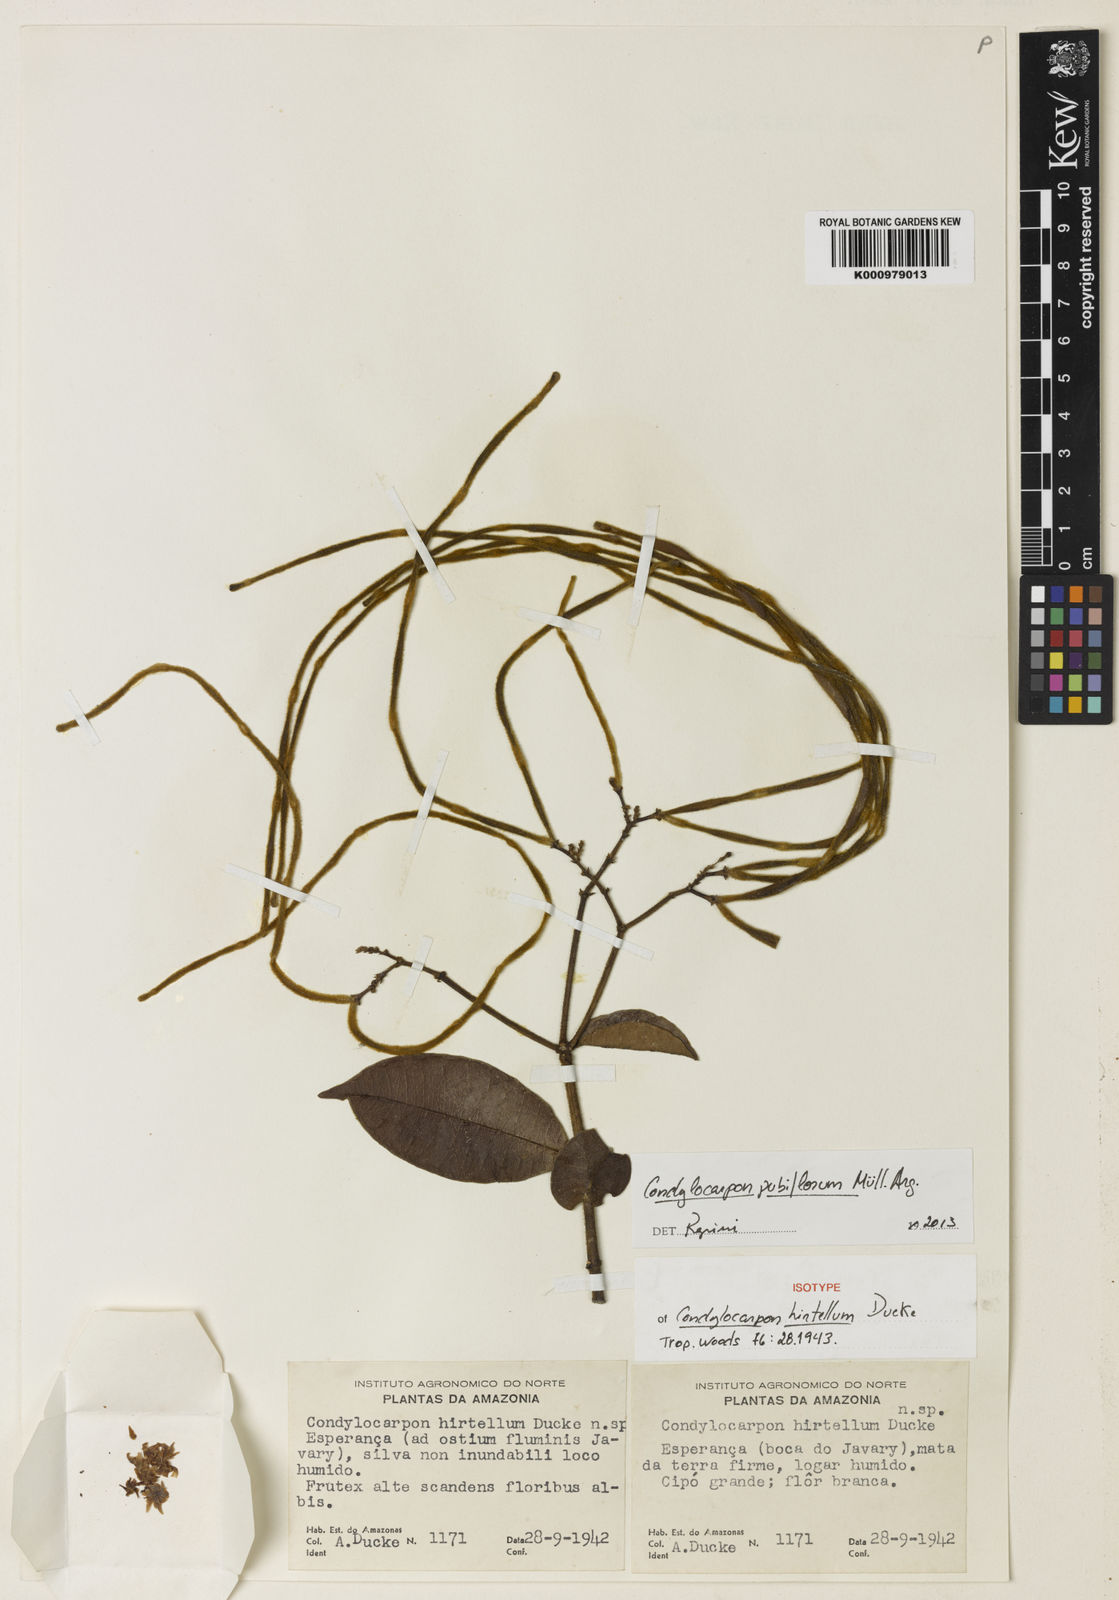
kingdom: Plantae
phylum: Tracheophyta
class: Magnoliopsida
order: Gentianales
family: Apocynaceae
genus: Condylocarpon
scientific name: Condylocarpon
